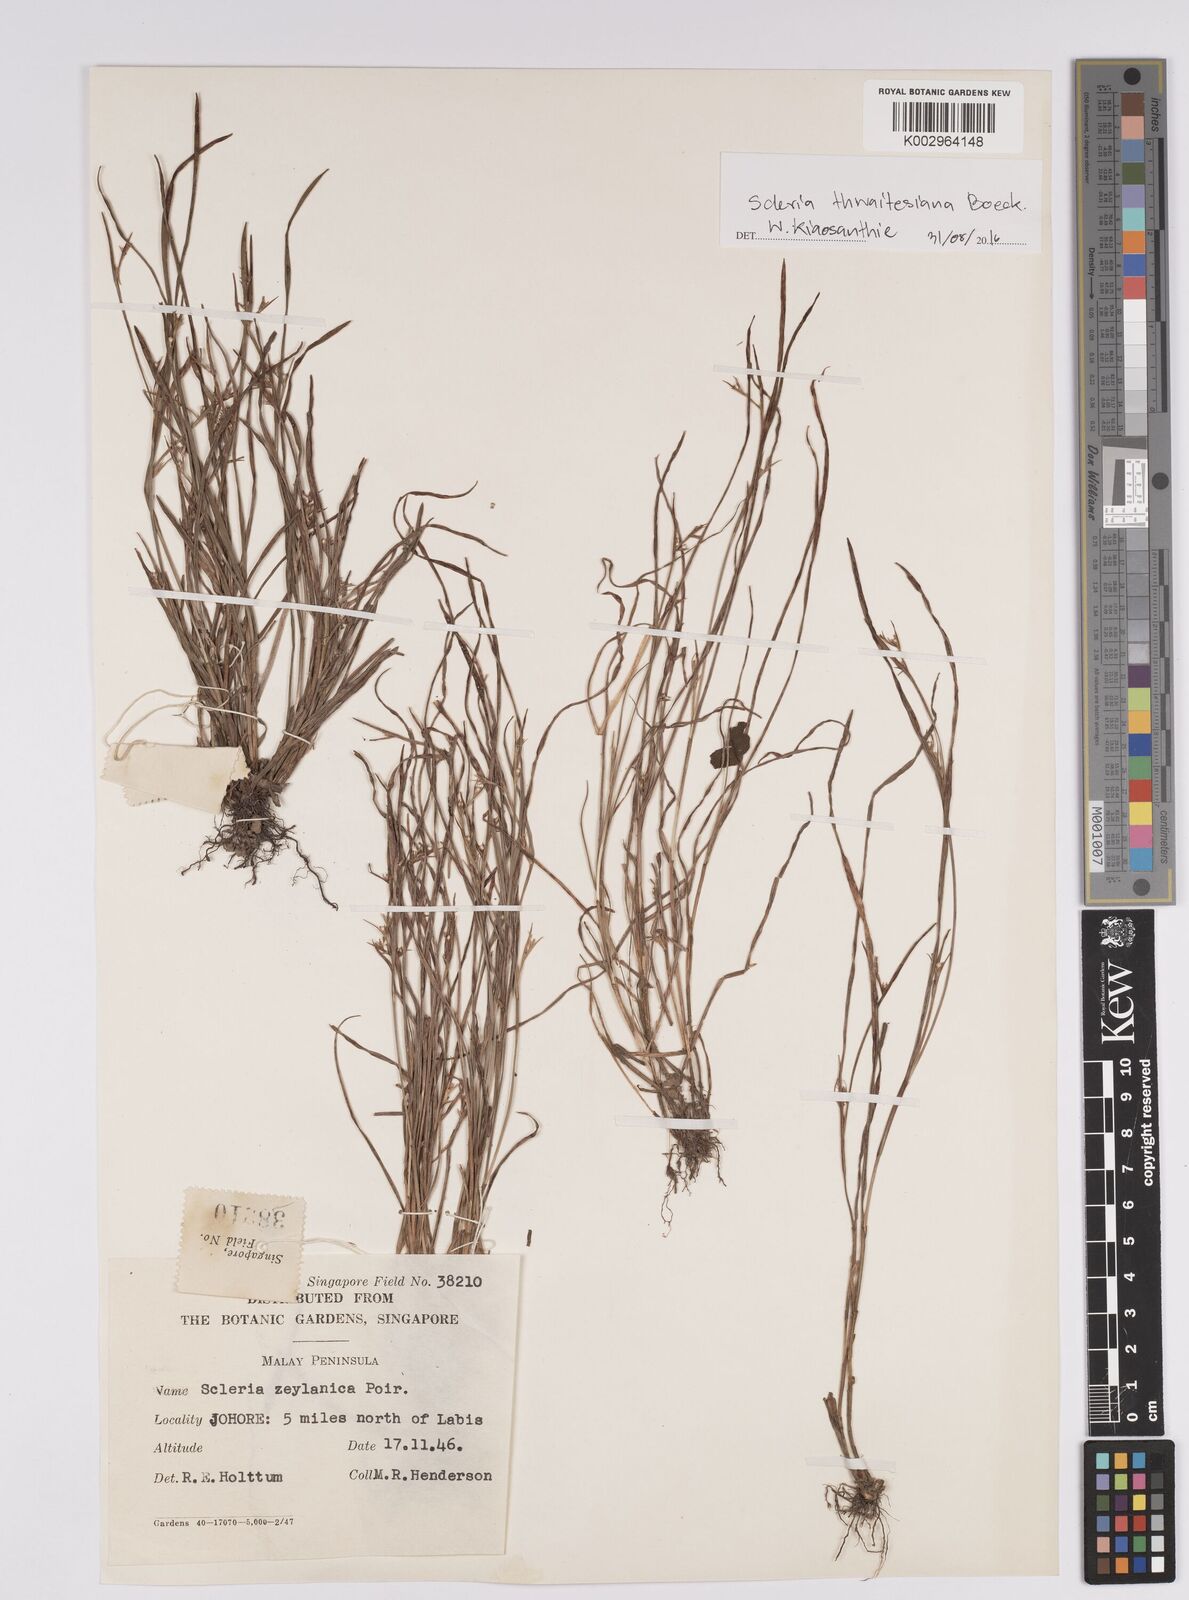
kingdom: Plantae
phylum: Tracheophyta
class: Liliopsida
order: Poales
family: Cyperaceae
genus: Scleria
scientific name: Scleria thwaitesiana
